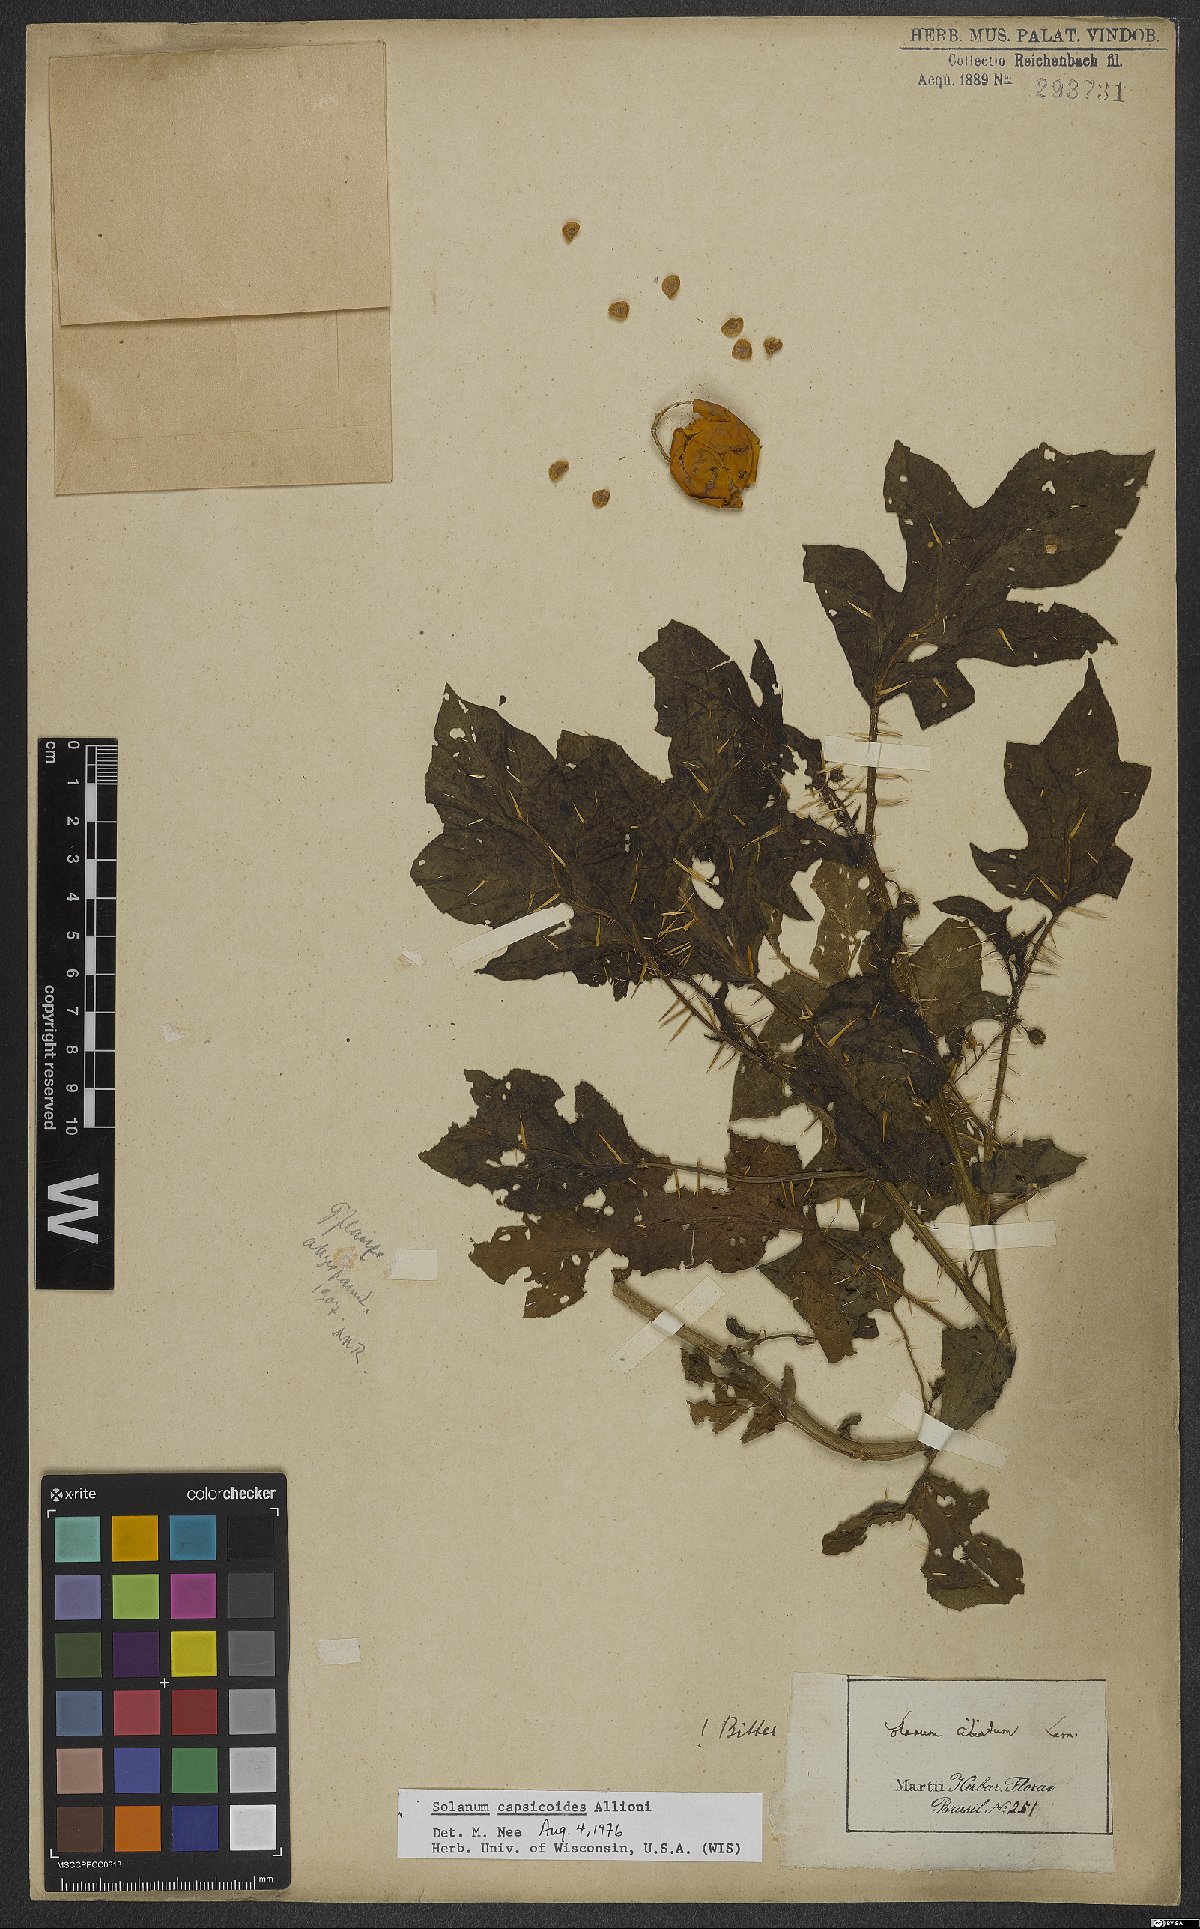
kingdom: Plantae
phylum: Tracheophyta
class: Magnoliopsida
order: Solanales
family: Solanaceae
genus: Solanum
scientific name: Solanum capsicoides
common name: Cockroach berry
